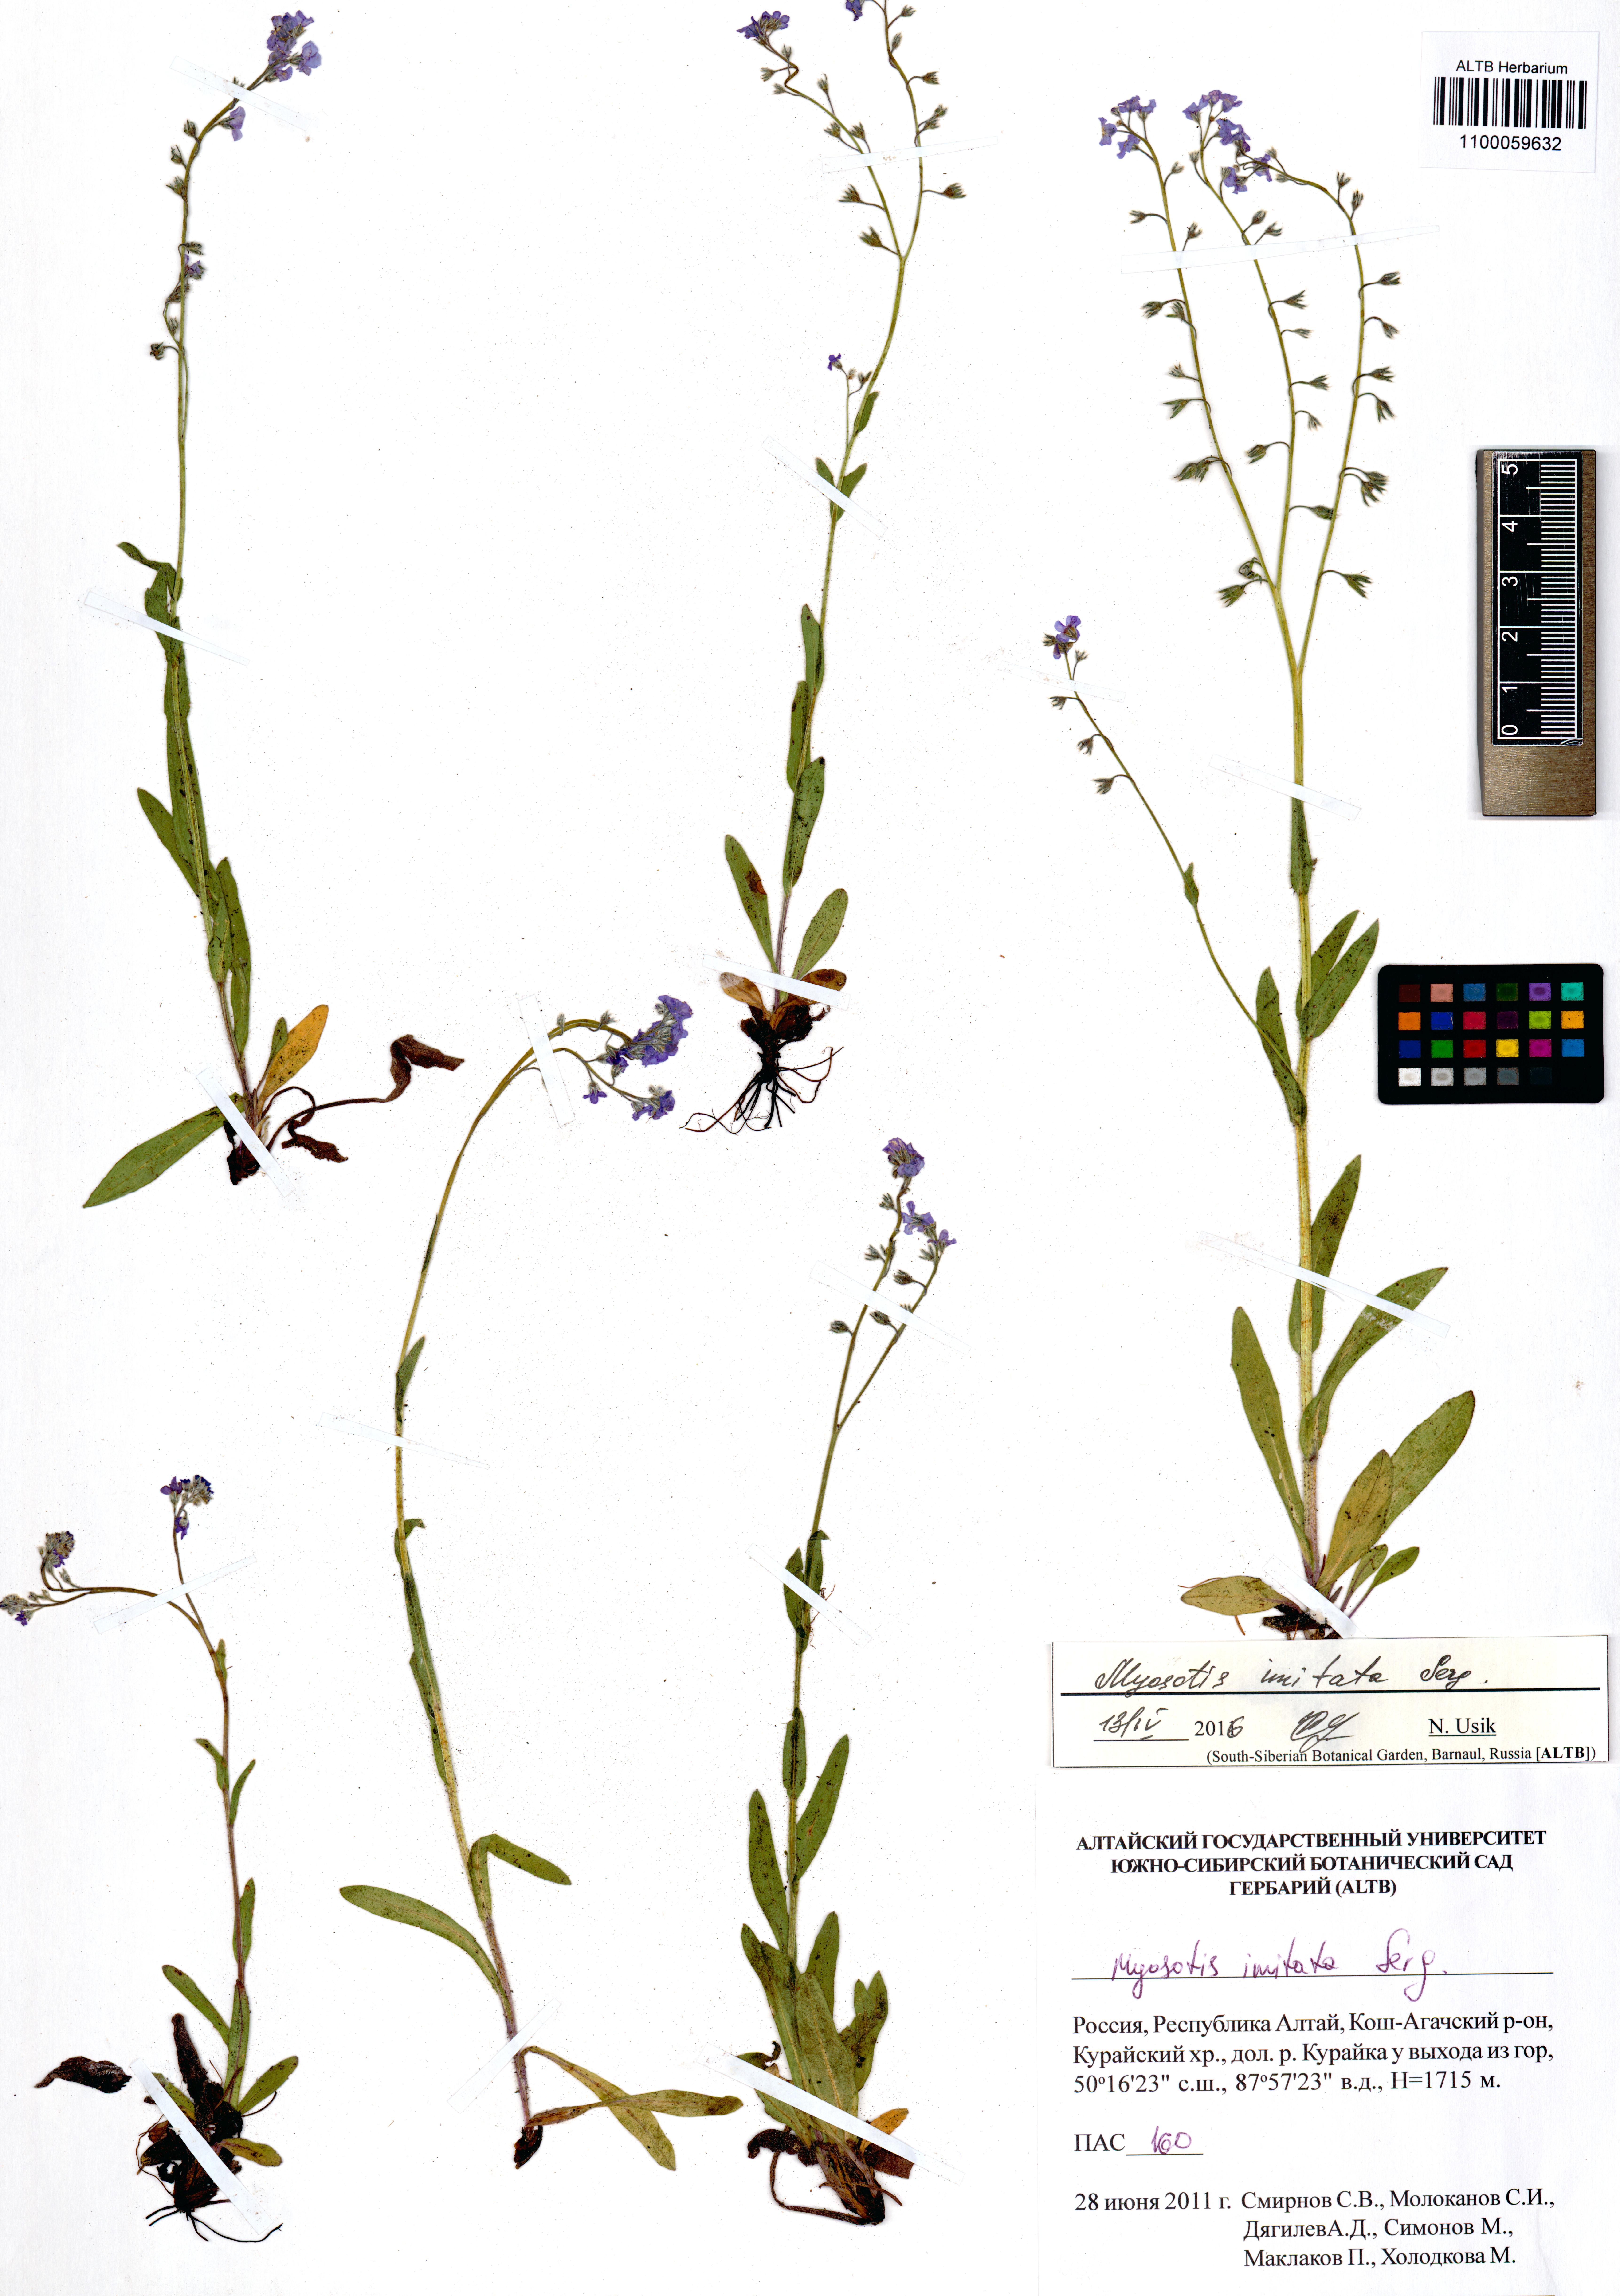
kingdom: Plantae
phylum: Tracheophyta
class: Magnoliopsida
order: Boraginales
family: Boraginaceae
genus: Myosotis
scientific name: Myosotis imitata
